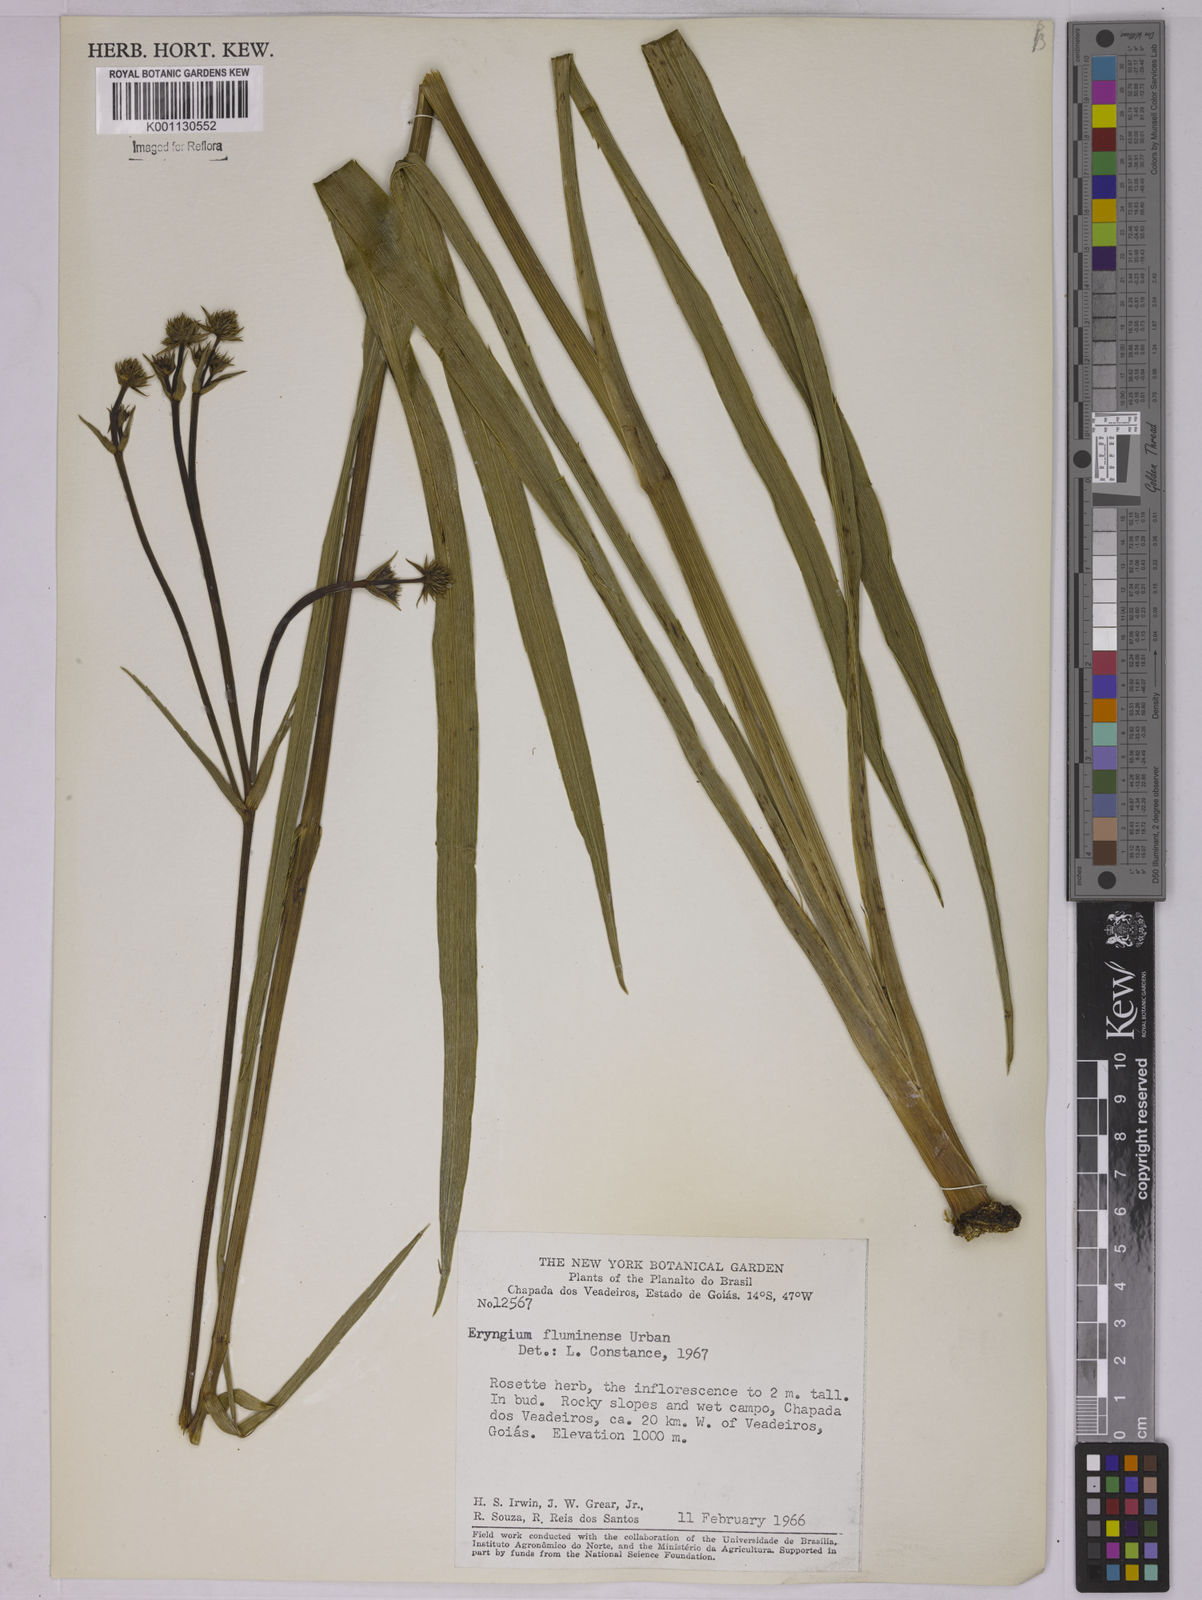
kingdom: Plantae
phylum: Tracheophyta
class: Magnoliopsida
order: Apiales
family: Apiaceae
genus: Eryngium
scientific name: Eryngium fluminense
